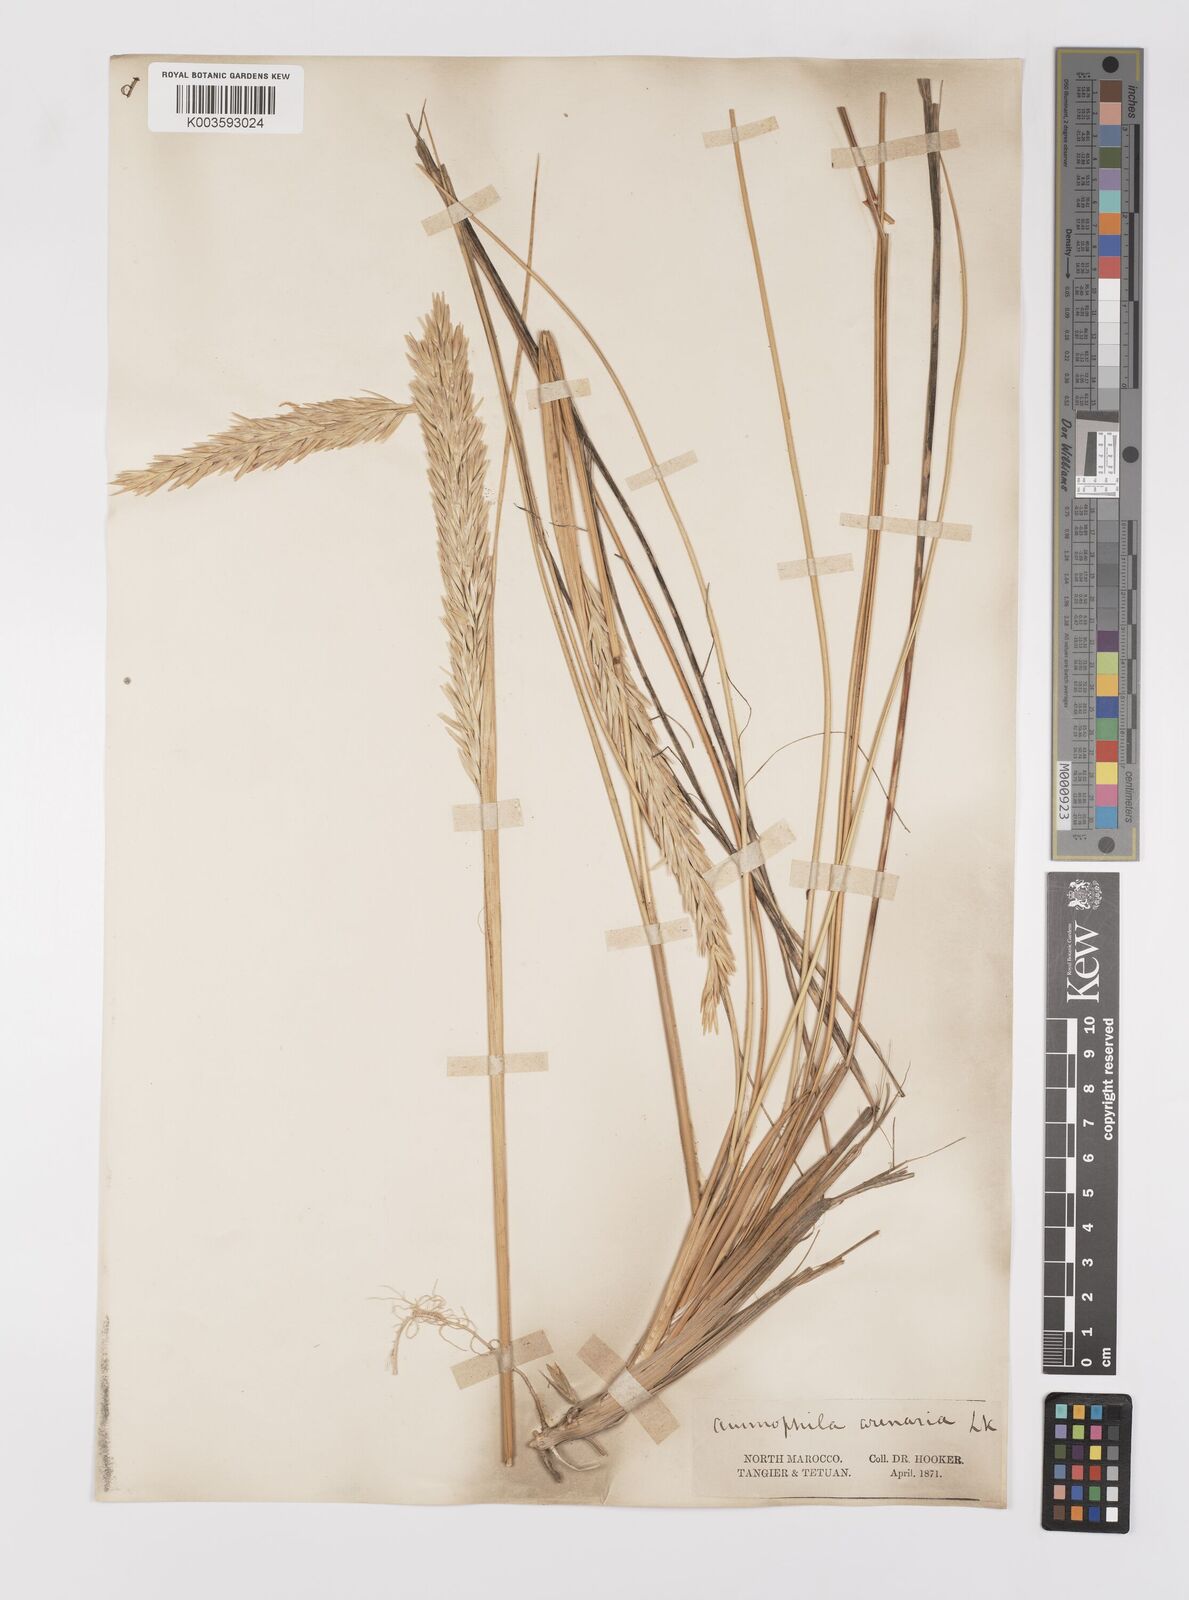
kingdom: Plantae
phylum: Tracheophyta
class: Liliopsida
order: Poales
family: Poaceae
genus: Calamagrostis
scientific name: Calamagrostis arenaria
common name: European beachgrass
